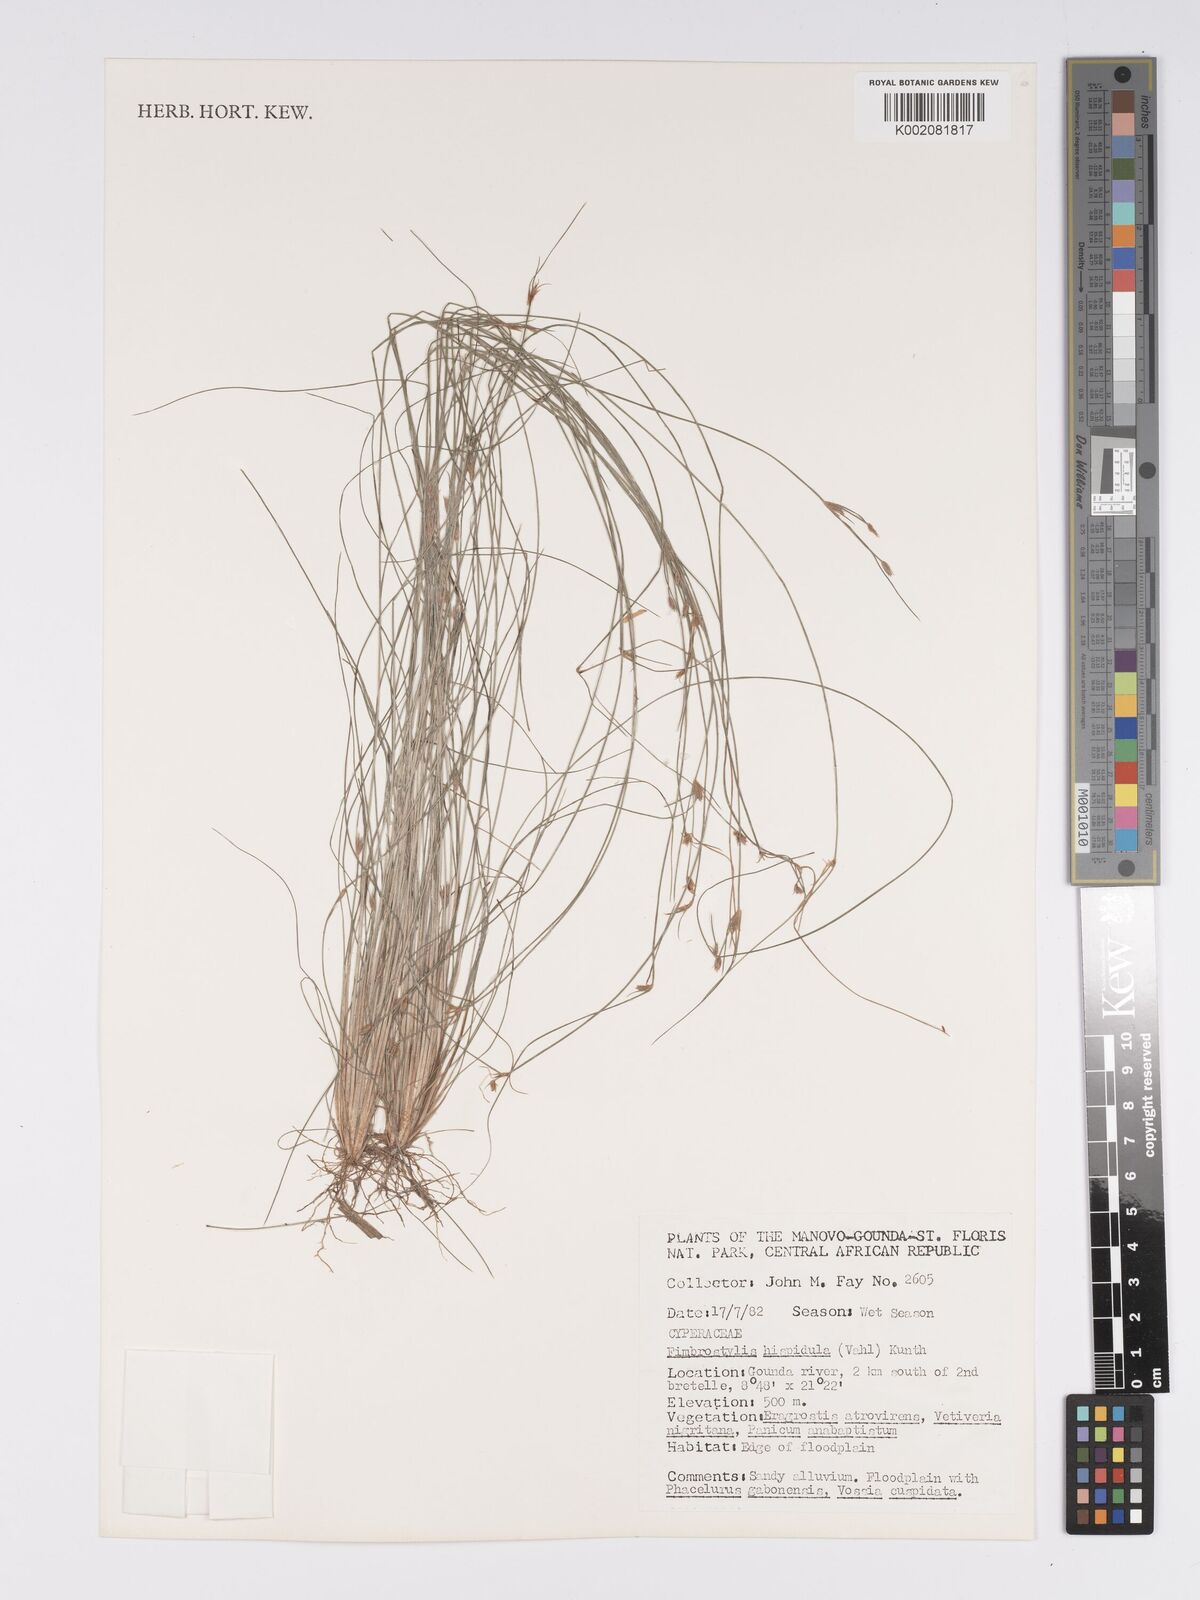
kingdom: Plantae
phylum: Tracheophyta
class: Liliopsida
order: Poales
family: Cyperaceae
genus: Bulbostylis
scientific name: Bulbostylis hispidula
